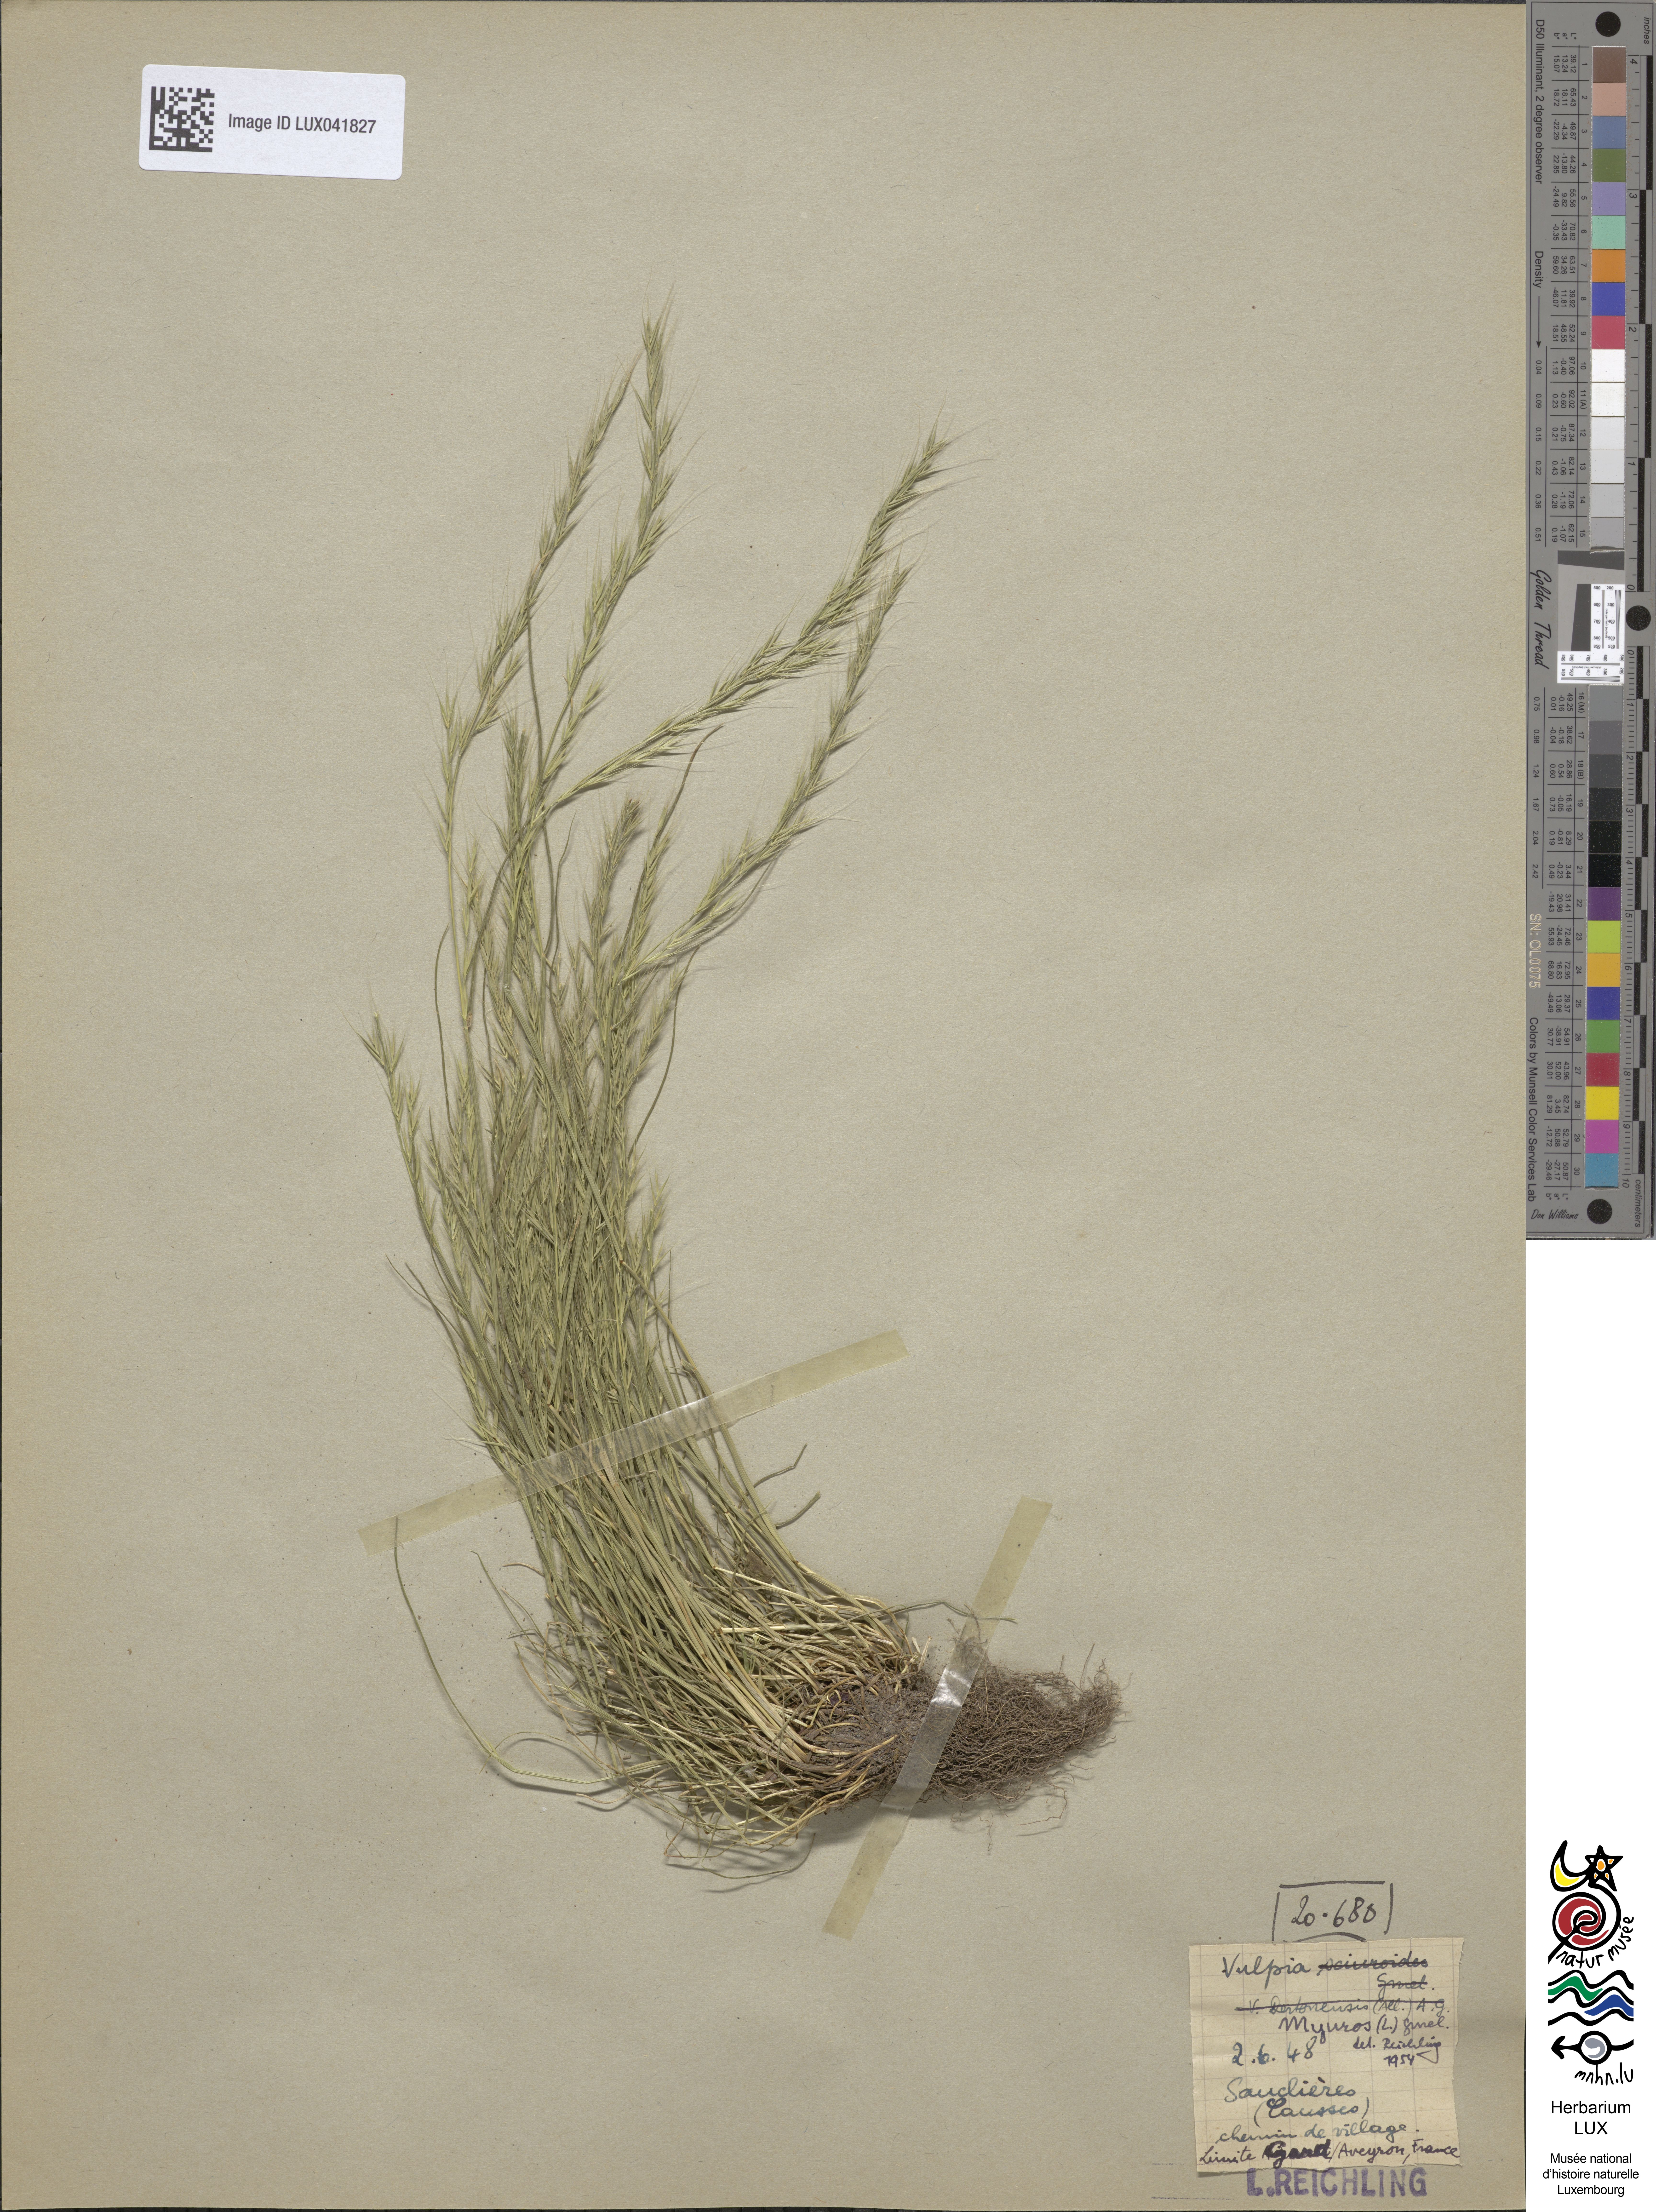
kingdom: Plantae
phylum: Tracheophyta
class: Liliopsida
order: Poales
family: Poaceae
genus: Festuca
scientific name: Festuca myuros
